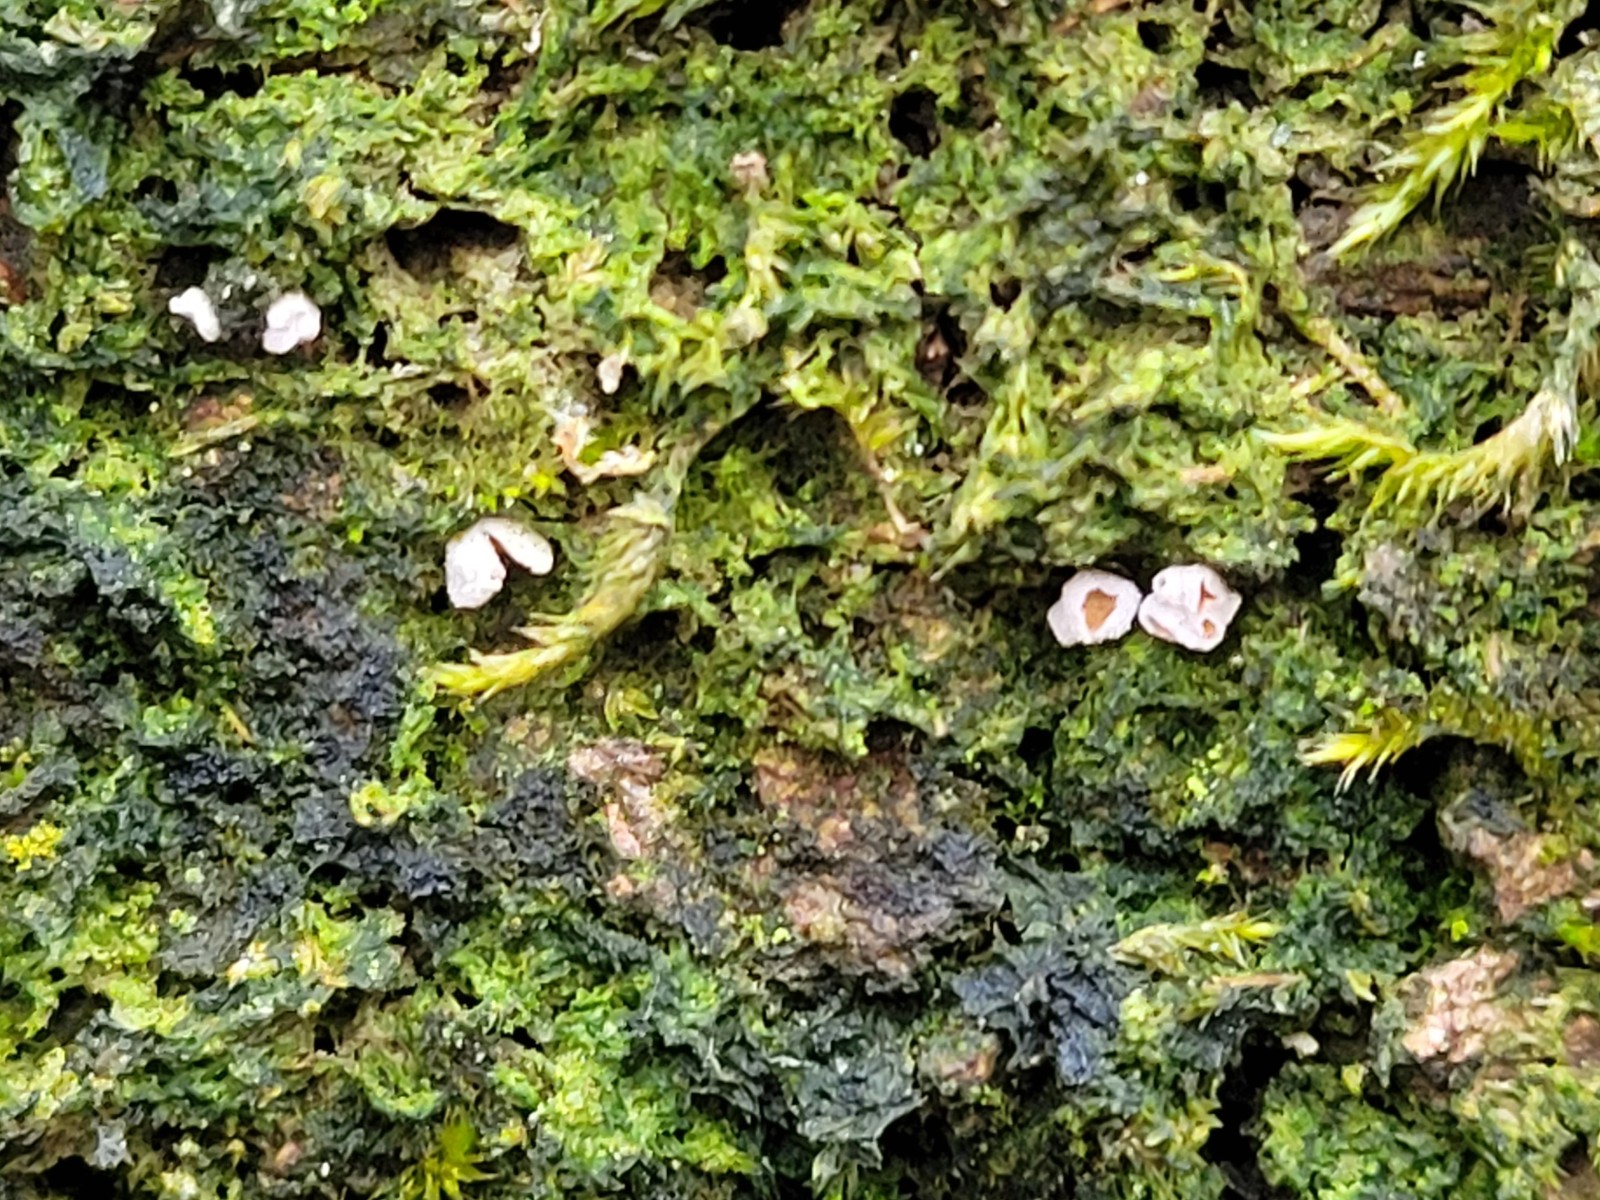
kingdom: Fungi
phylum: Basidiomycota
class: Agaricomycetes
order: Agaricales
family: Chromocyphellaceae
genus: Chromocyphella
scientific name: Chromocyphella muscicola
